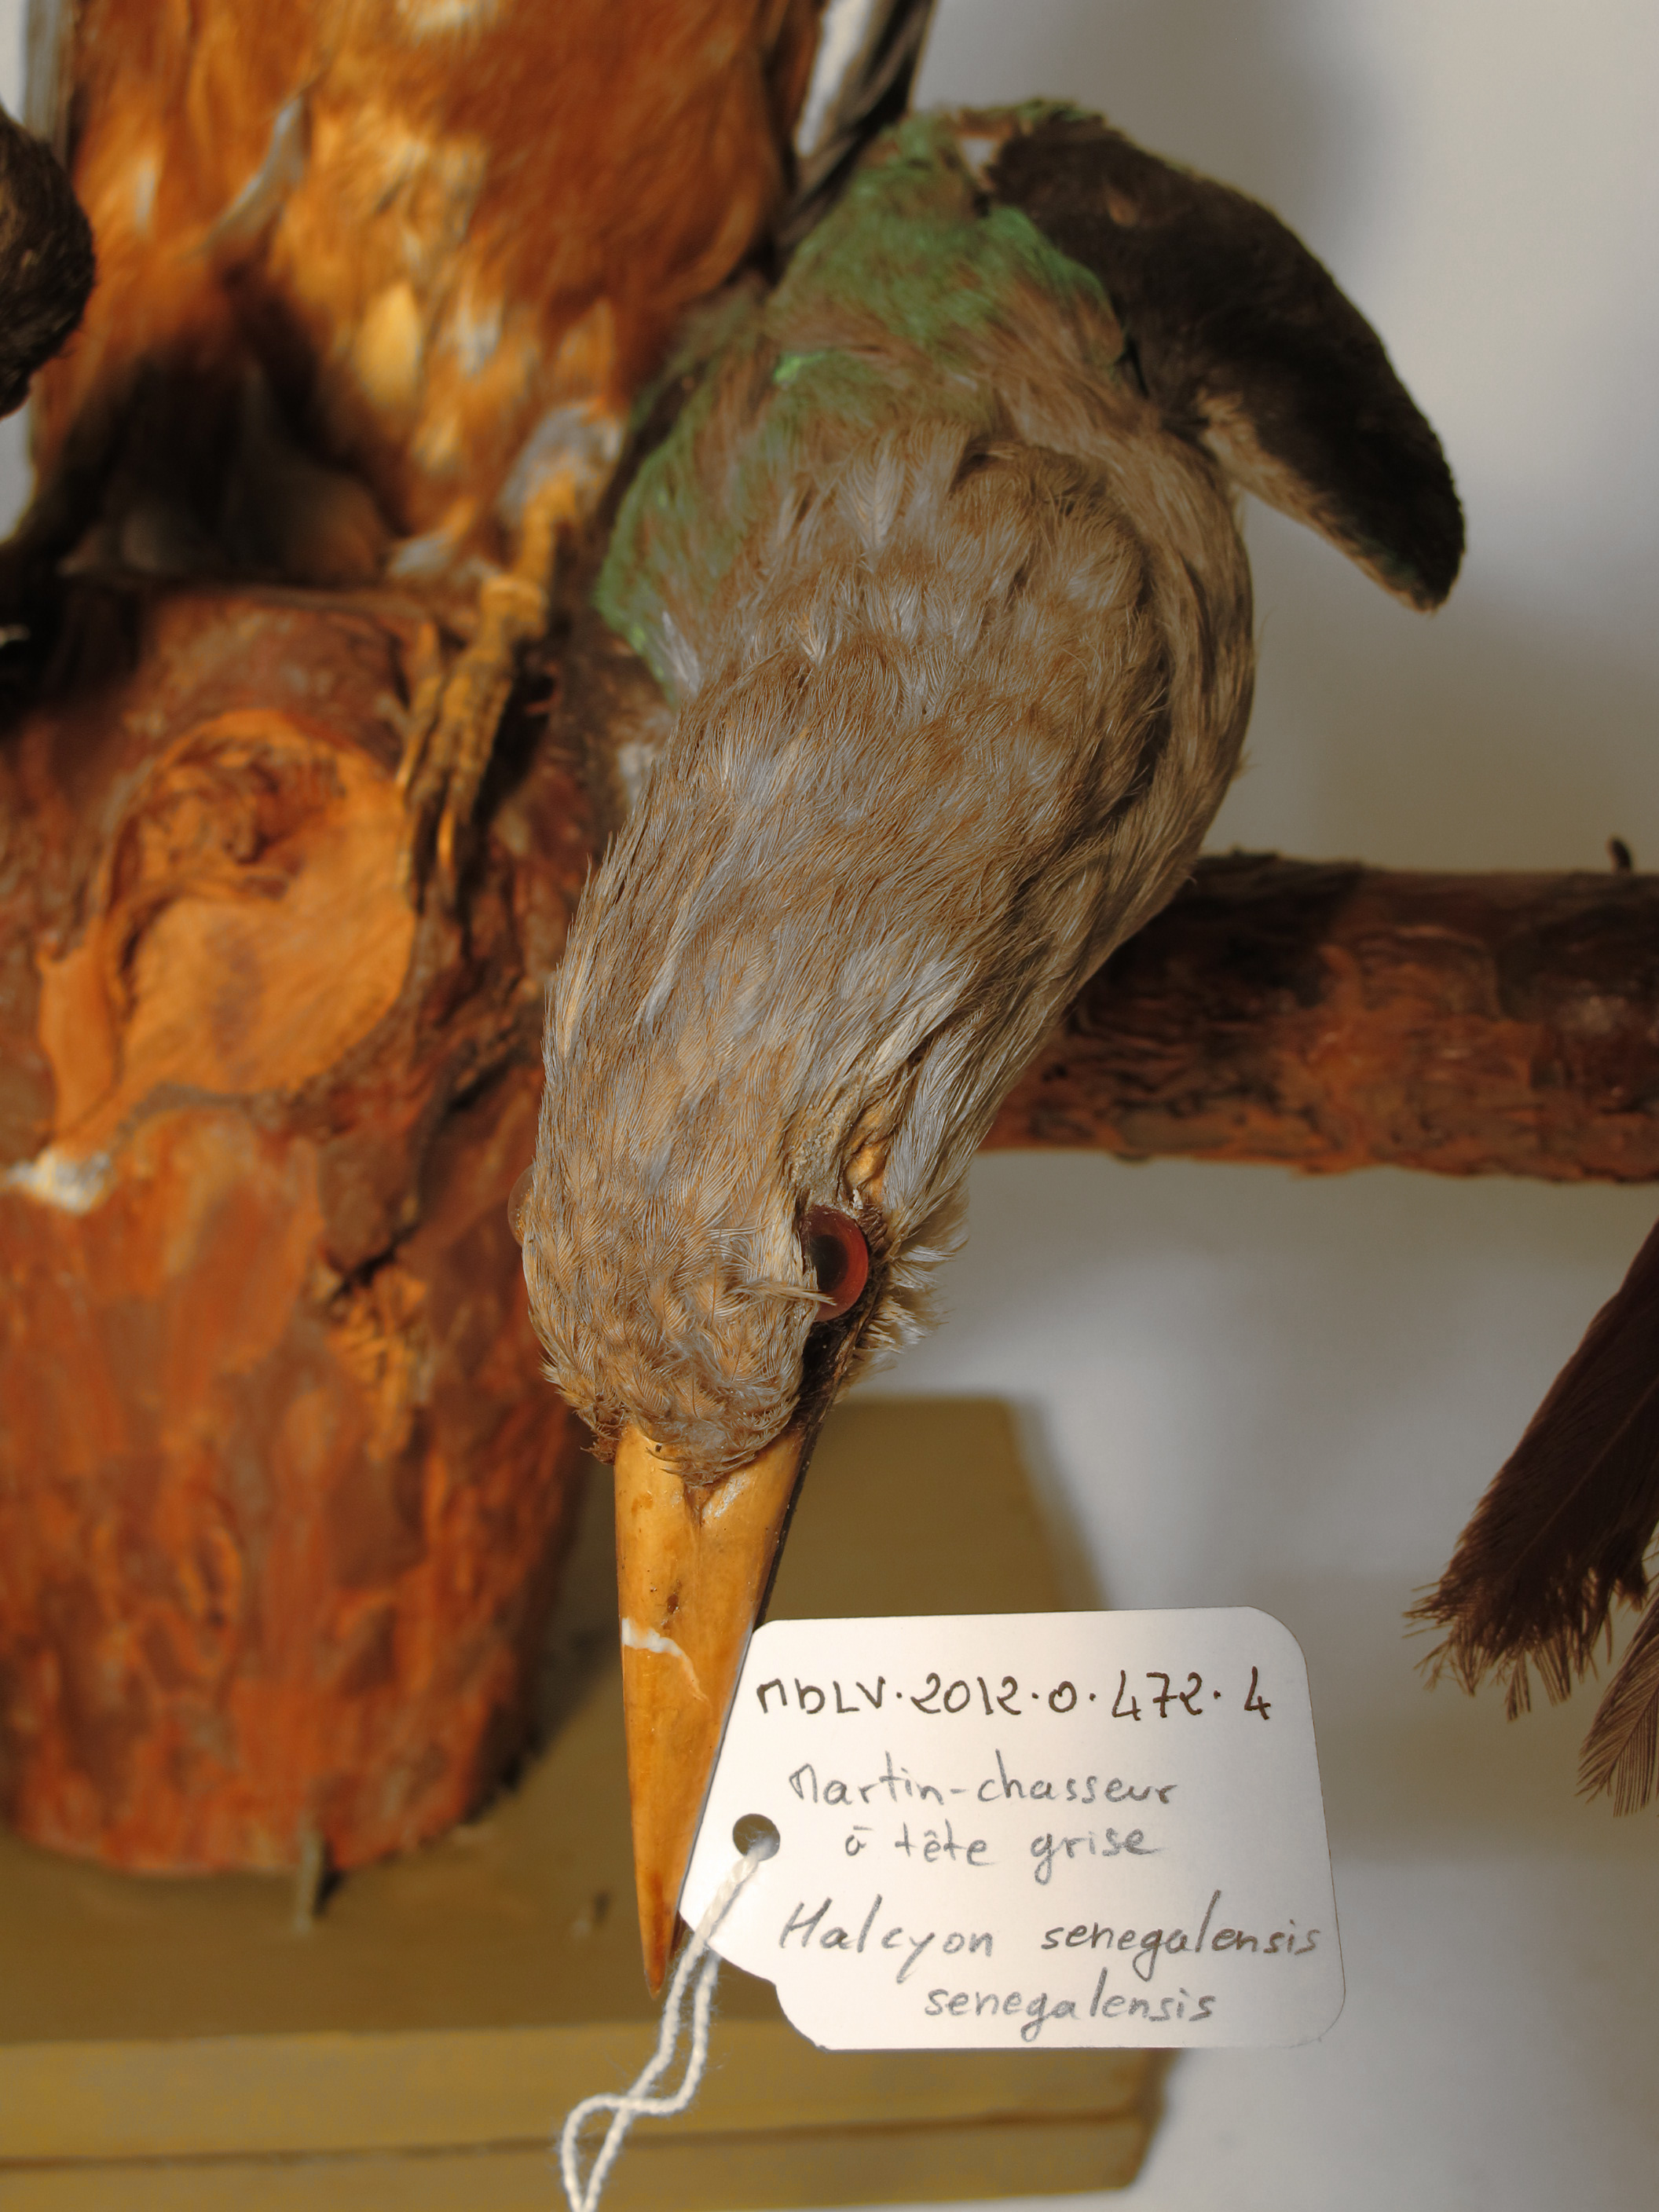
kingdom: Animalia
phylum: Chordata
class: Aves
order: Coraciiformes
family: Alcedinidae
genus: Halcyon
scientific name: Halcyon senegalensis
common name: Grey-headed Kingfisher
